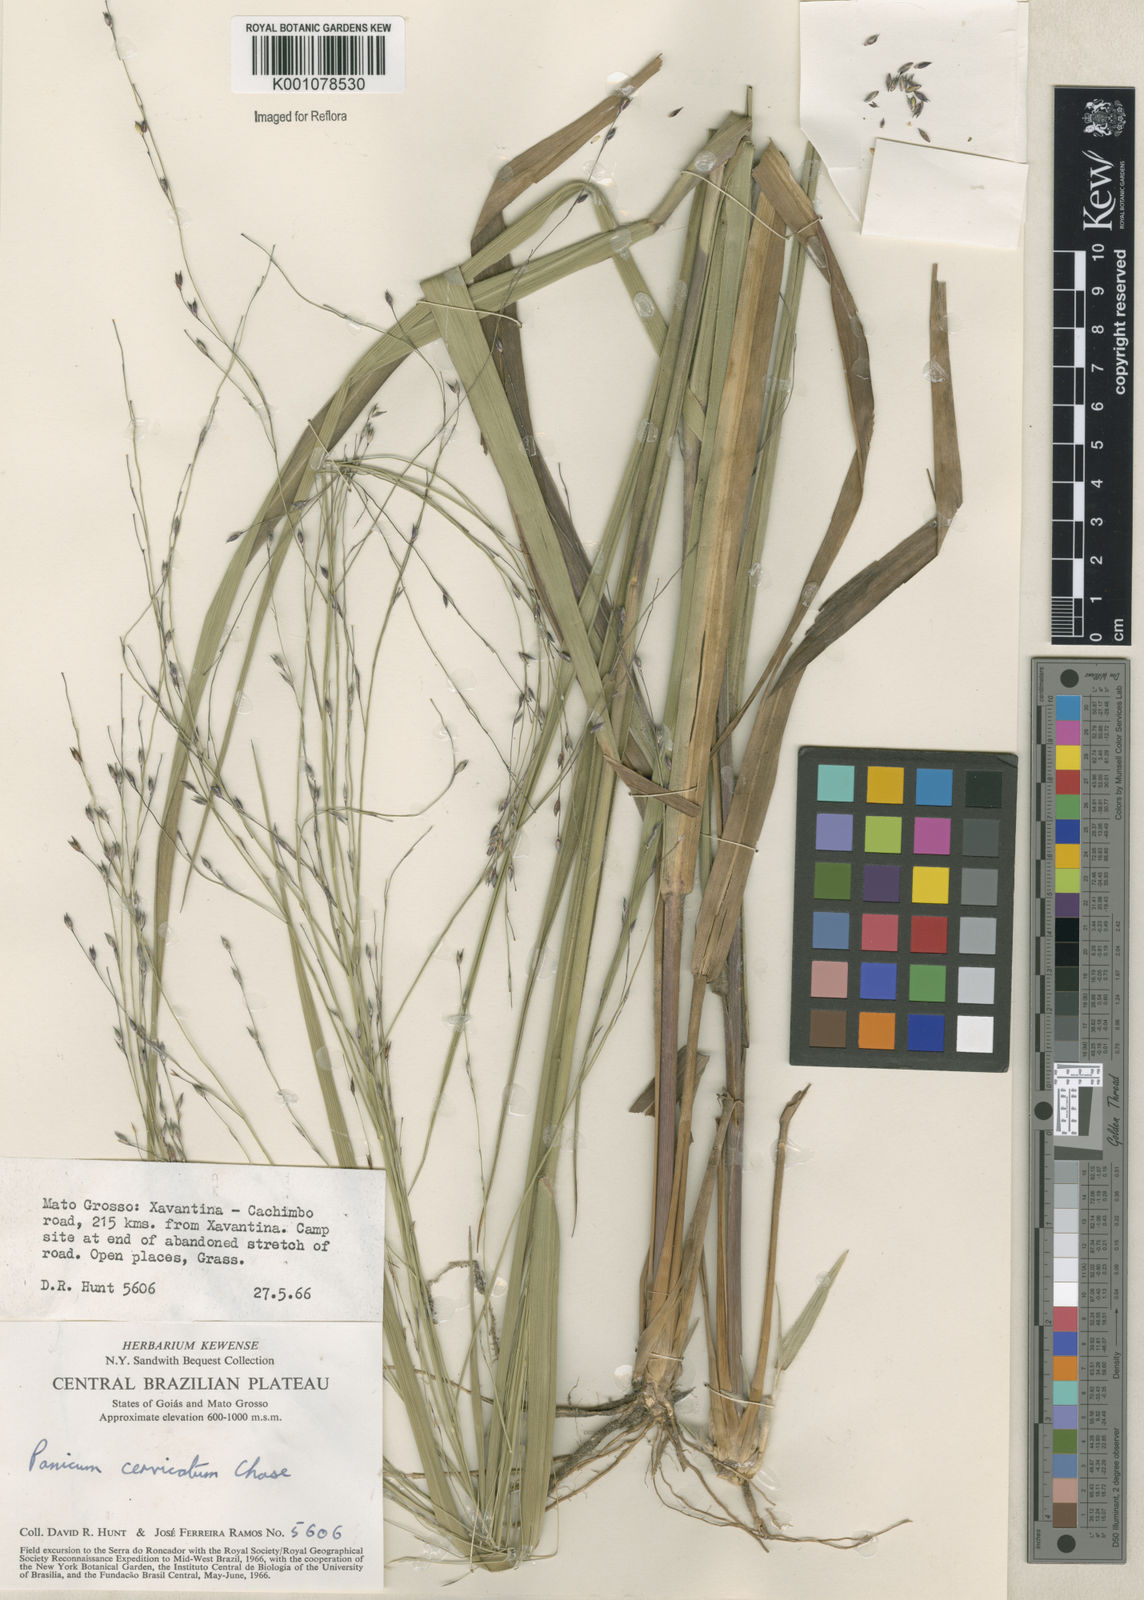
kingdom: Plantae
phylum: Tracheophyta
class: Liliopsida
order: Poales
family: Poaceae
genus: Panicum
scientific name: Panicum ligulare
